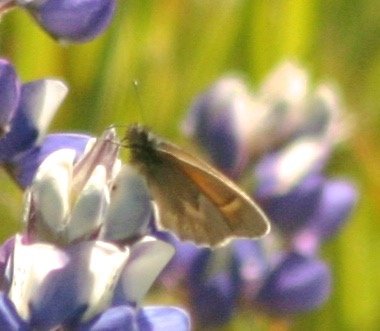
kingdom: Animalia
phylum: Arthropoda
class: Insecta
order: Lepidoptera
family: Nymphalidae
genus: Coenonympha
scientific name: Coenonympha tullia
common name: Large Heath
